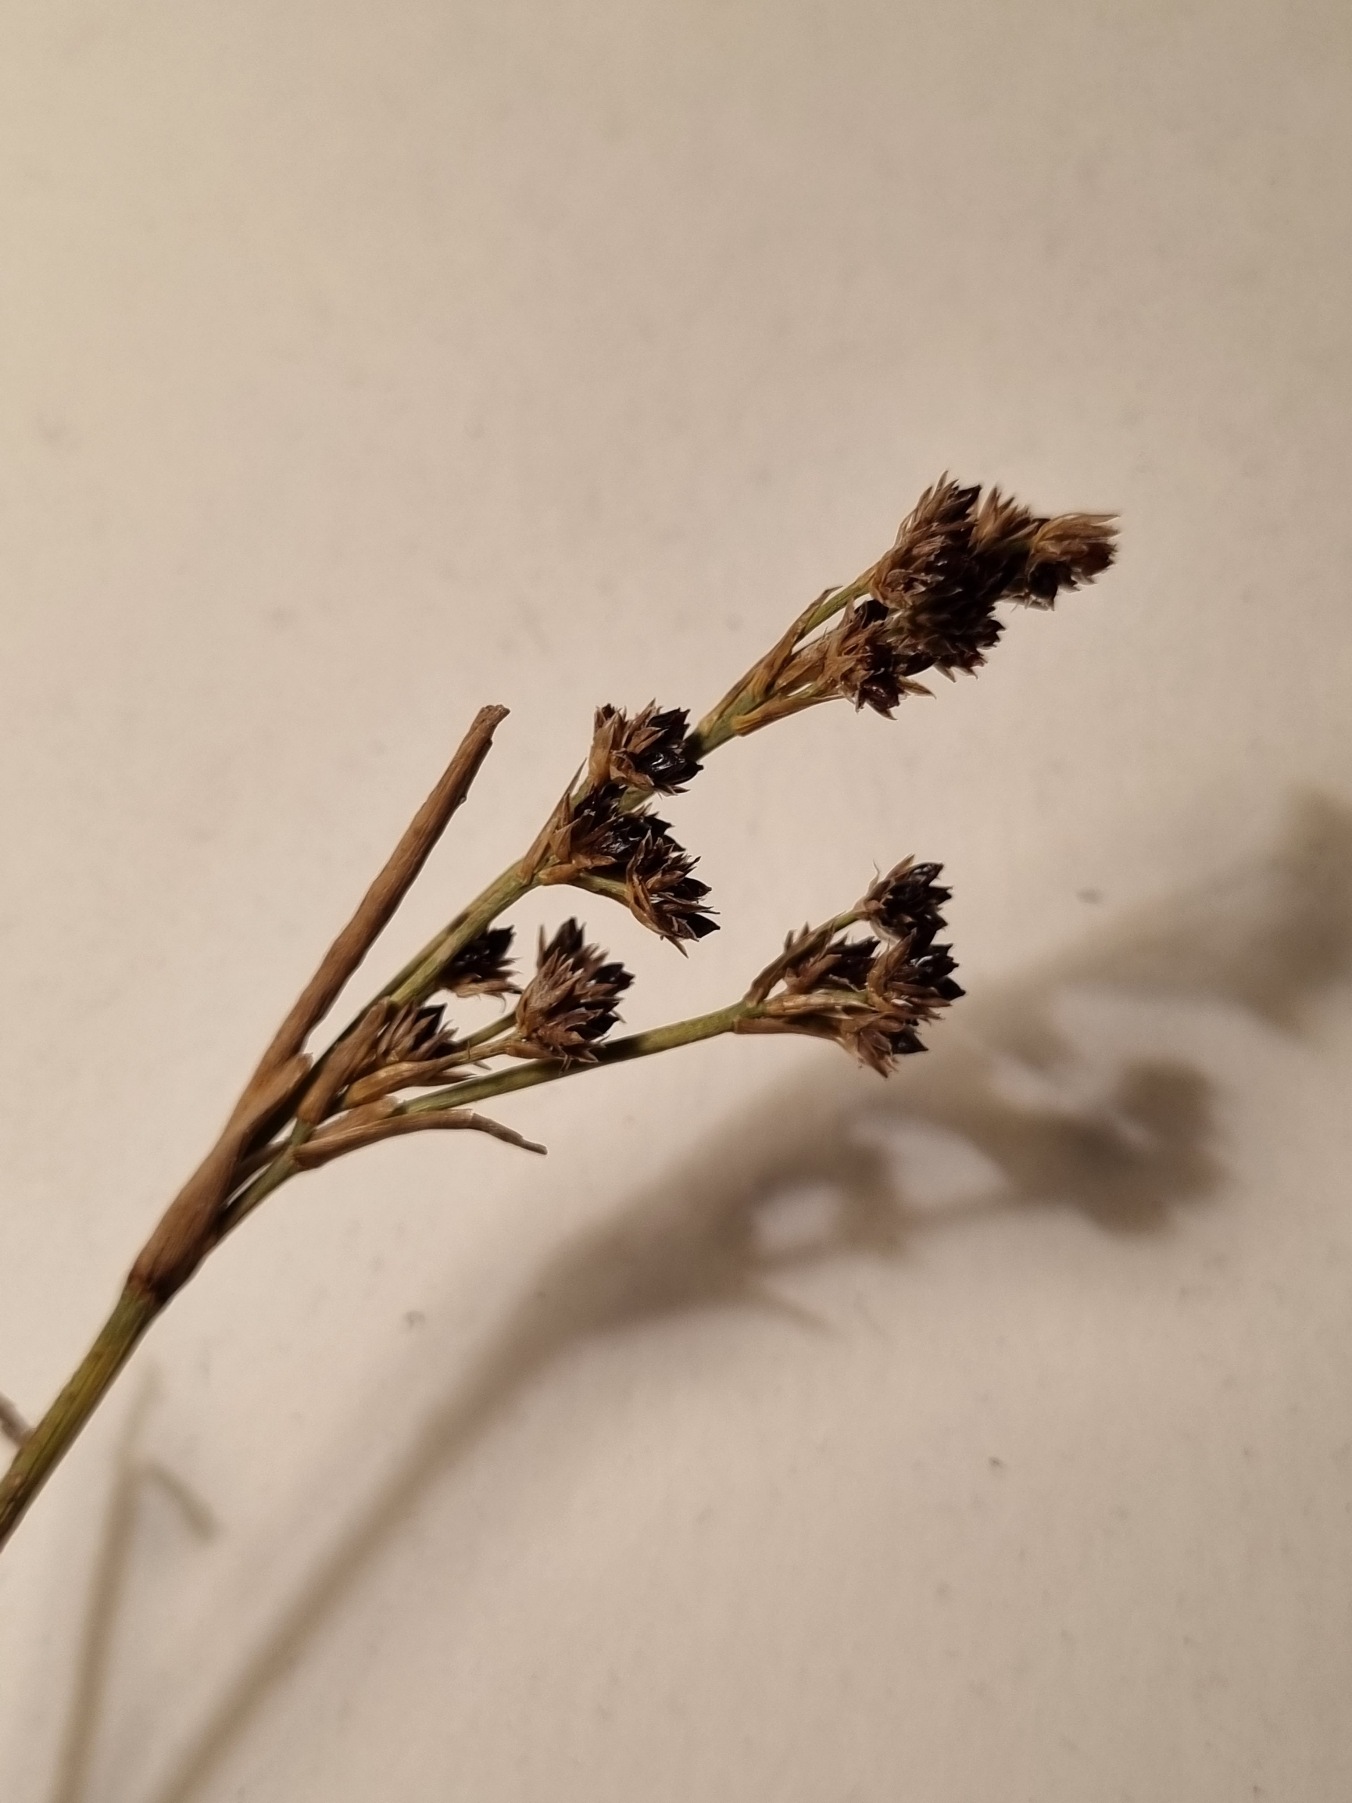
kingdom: Plantae
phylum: Tracheophyta
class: Liliopsida
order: Poales
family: Juncaceae
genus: Juncus
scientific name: Juncus articulatus
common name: Glanskapslet siv
